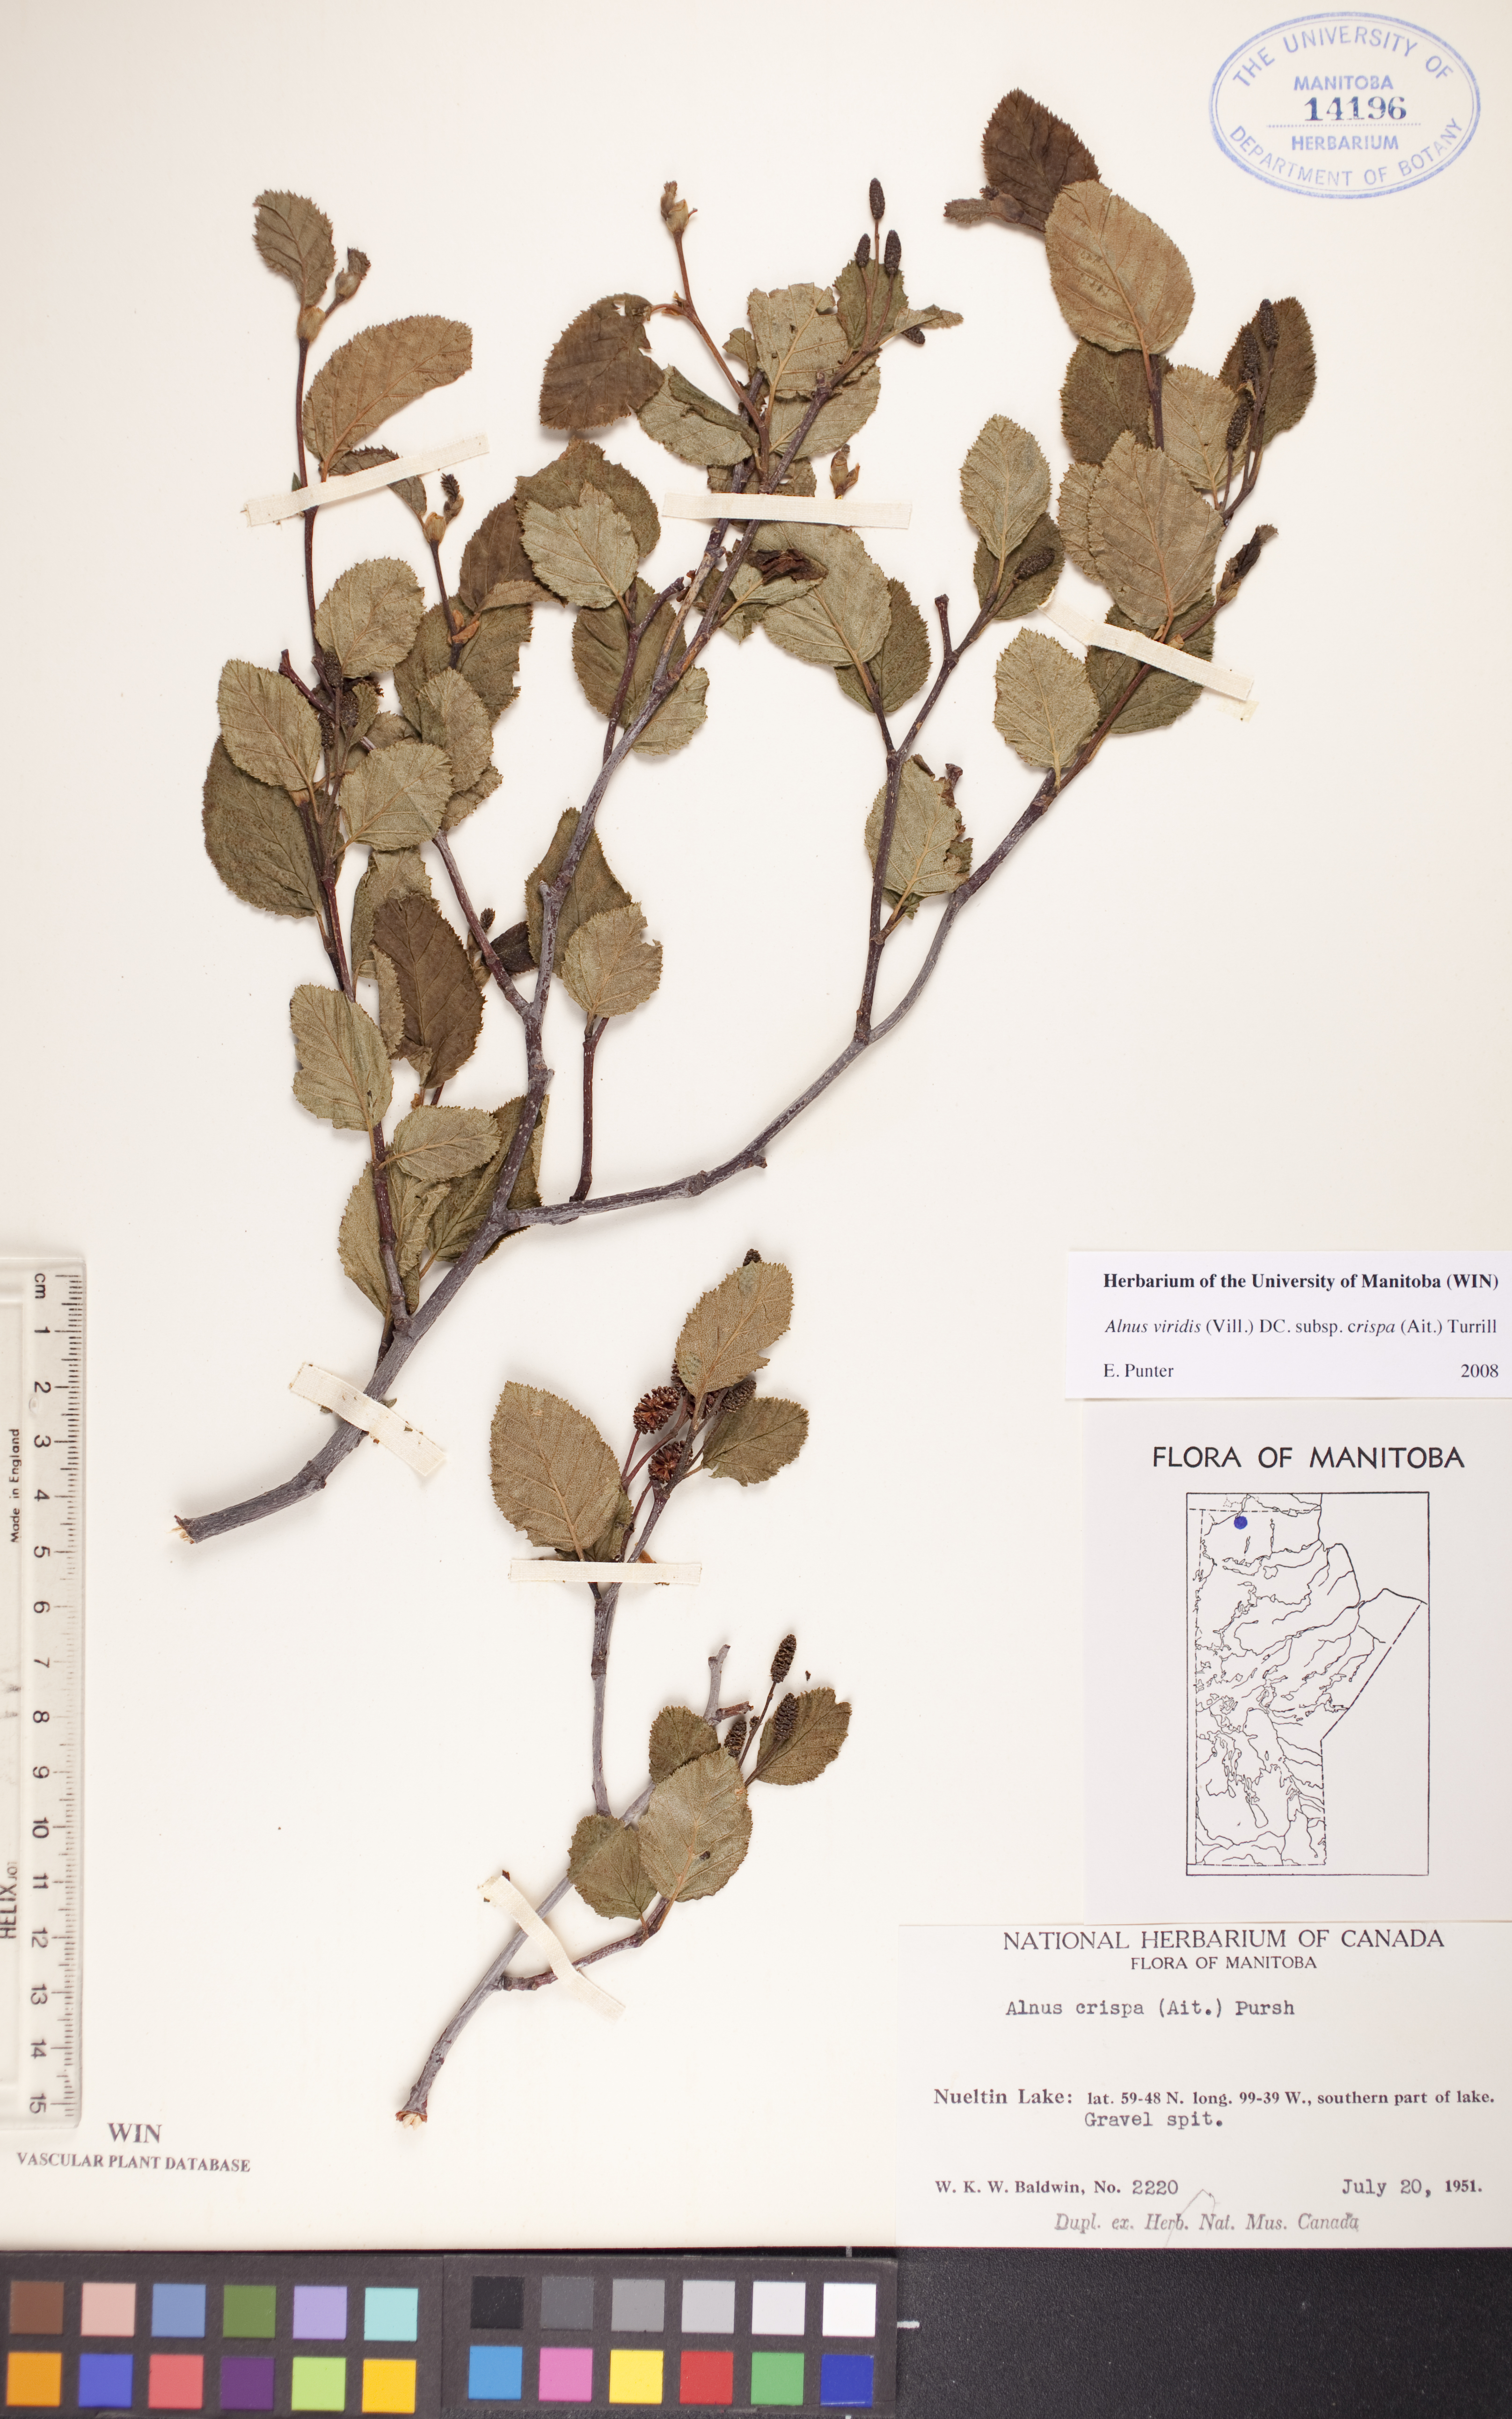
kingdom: Plantae
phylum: Tracheophyta
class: Magnoliopsida
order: Fagales
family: Betulaceae
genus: Alnus
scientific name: Alnus alnobetula
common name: Green alder
